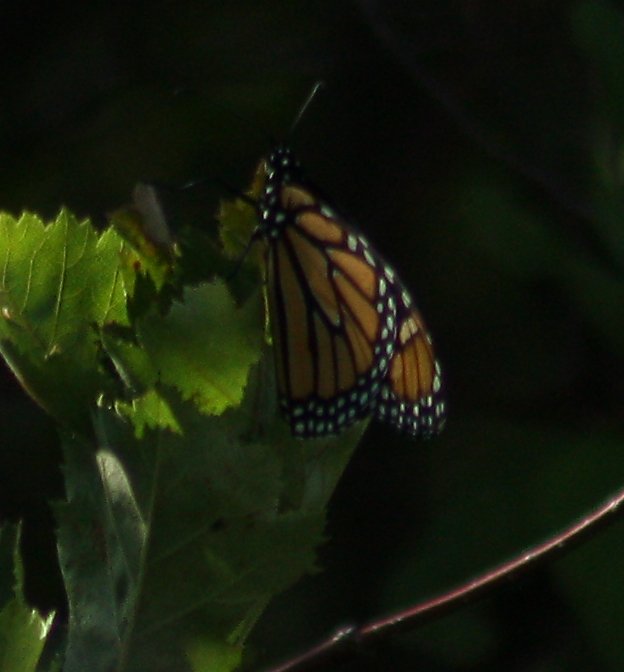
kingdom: Animalia
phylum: Arthropoda
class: Insecta
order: Lepidoptera
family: Nymphalidae
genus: Danaus
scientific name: Danaus plexippus
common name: Monarch
